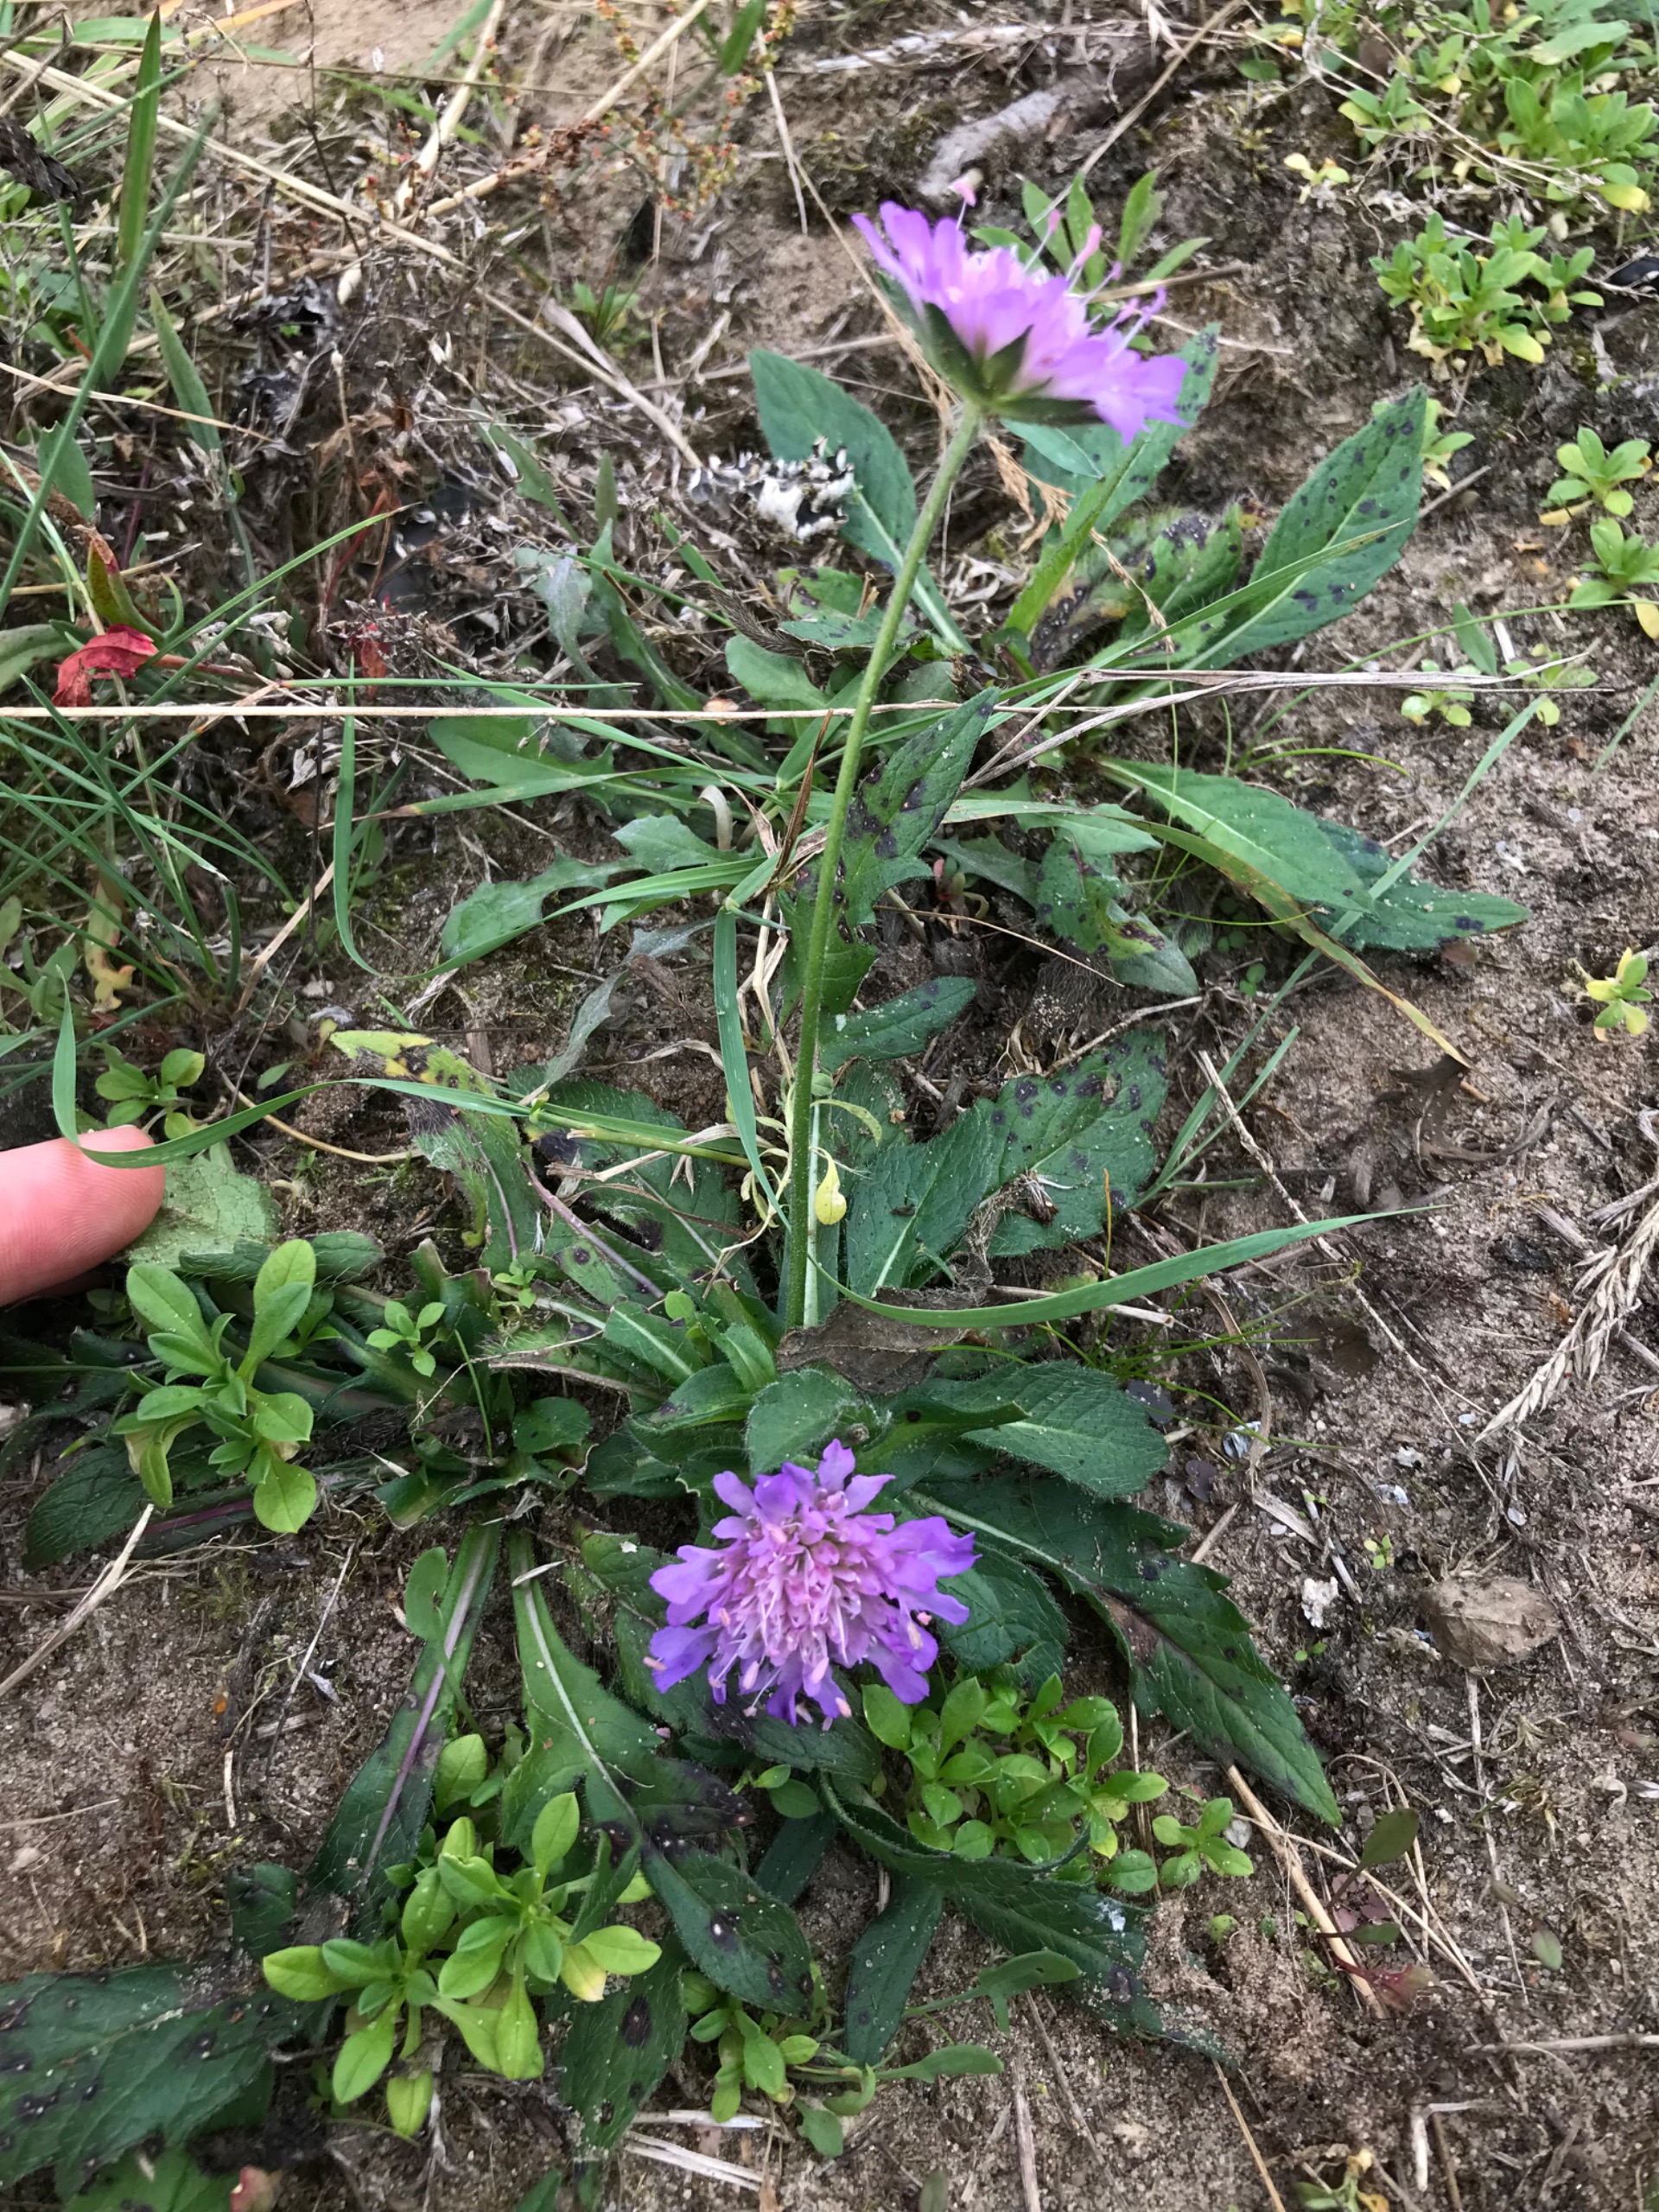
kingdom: Plantae
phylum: Tracheophyta
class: Magnoliopsida
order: Dipsacales
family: Caprifoliaceae
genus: Knautia
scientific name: Knautia arvensis
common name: Blåhat
